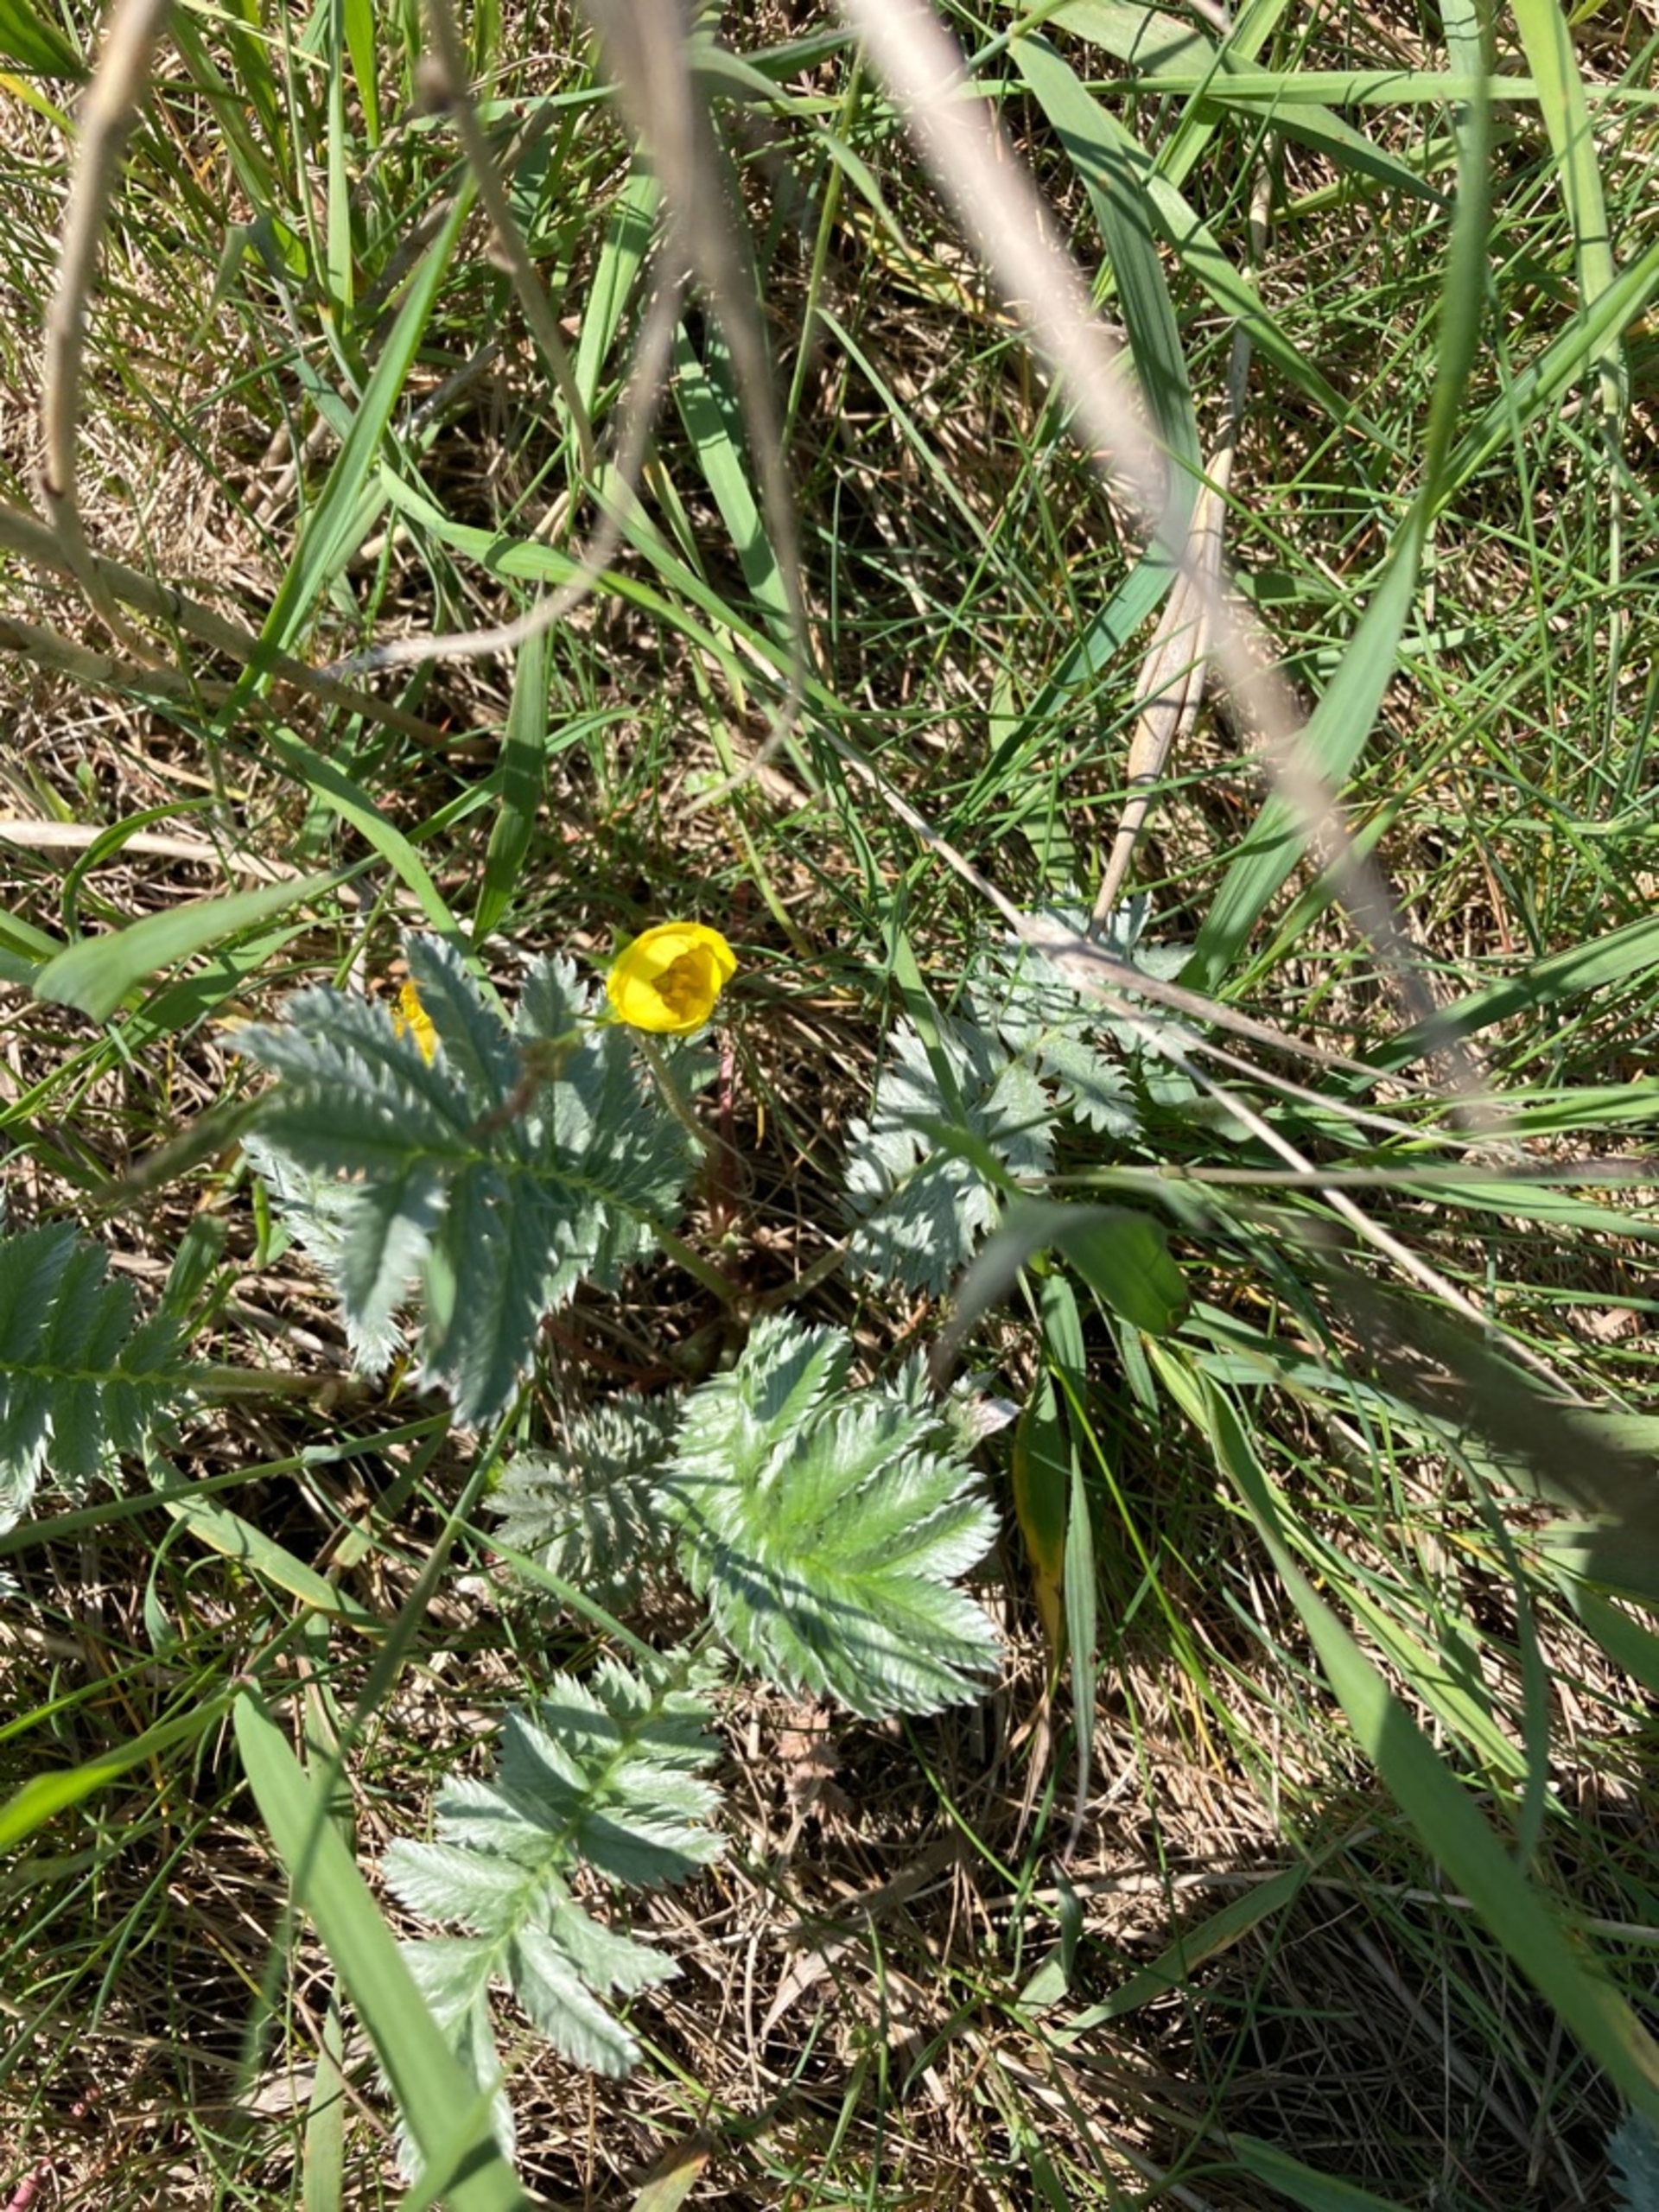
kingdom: Plantae
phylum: Tracheophyta
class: Magnoliopsida
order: Rosales
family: Rosaceae
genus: Argentina
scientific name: Argentina anserina
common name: Gåsepotentil
